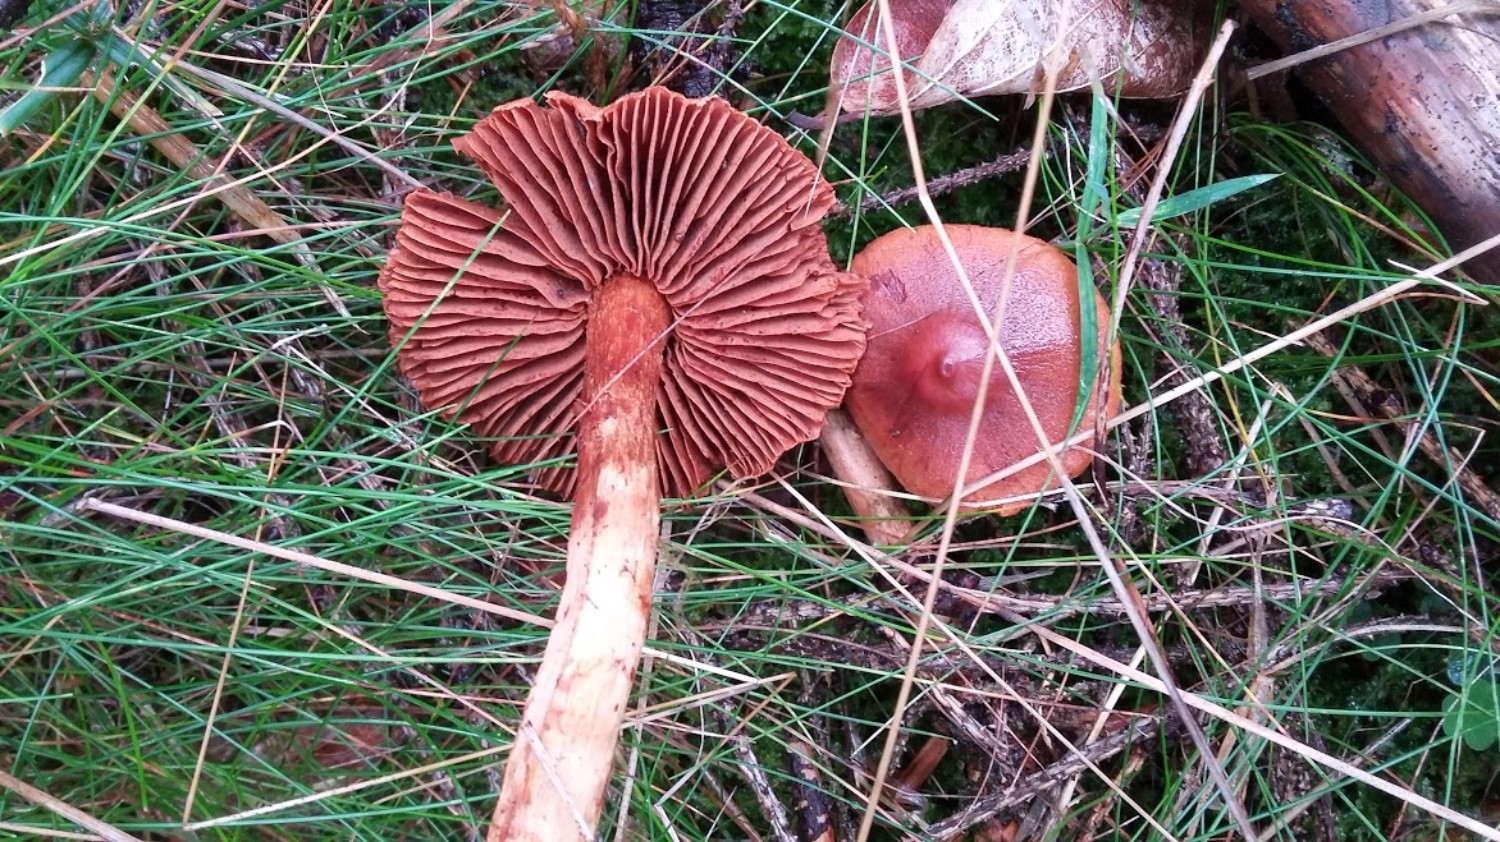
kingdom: Fungi
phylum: Basidiomycota
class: Agaricomycetes
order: Agaricales
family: Cortinariaceae
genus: Cortinarius
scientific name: Cortinarius sanguineus
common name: blodrød slørhat
